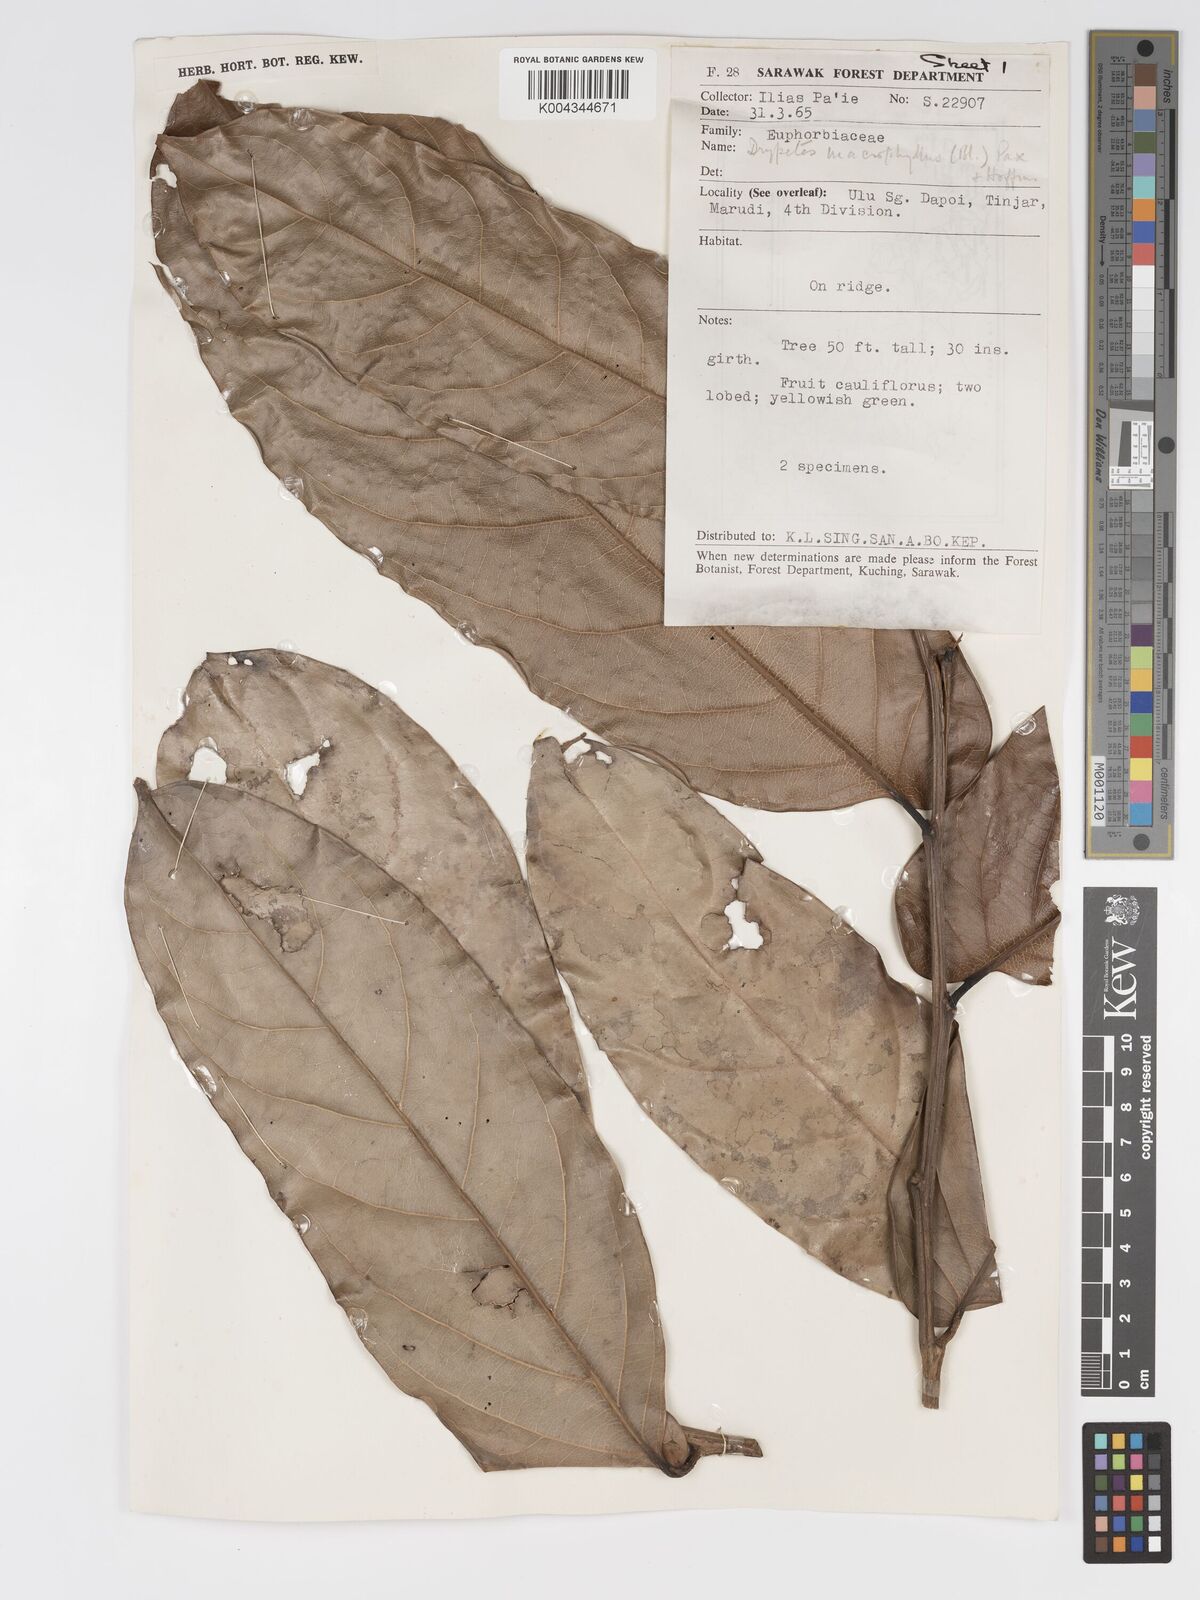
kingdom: Plantae
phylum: Tracheophyta
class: Magnoliopsida
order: Malpighiales
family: Putranjivaceae
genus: Drypetes
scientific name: Drypetes longifolia
